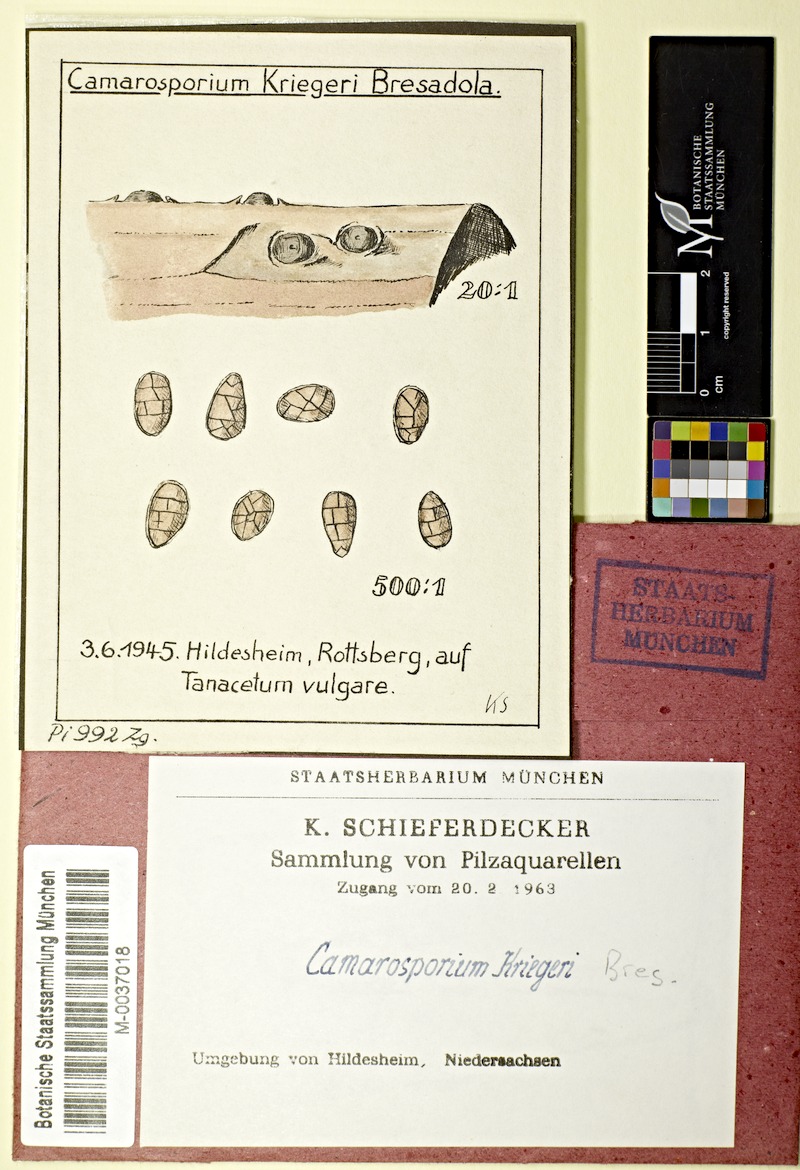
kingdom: Plantae
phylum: Tracheophyta
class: Magnoliopsida
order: Asterales
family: Asteraceae
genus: Tanacetum
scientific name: Tanacetum vulgare
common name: Common tansy
